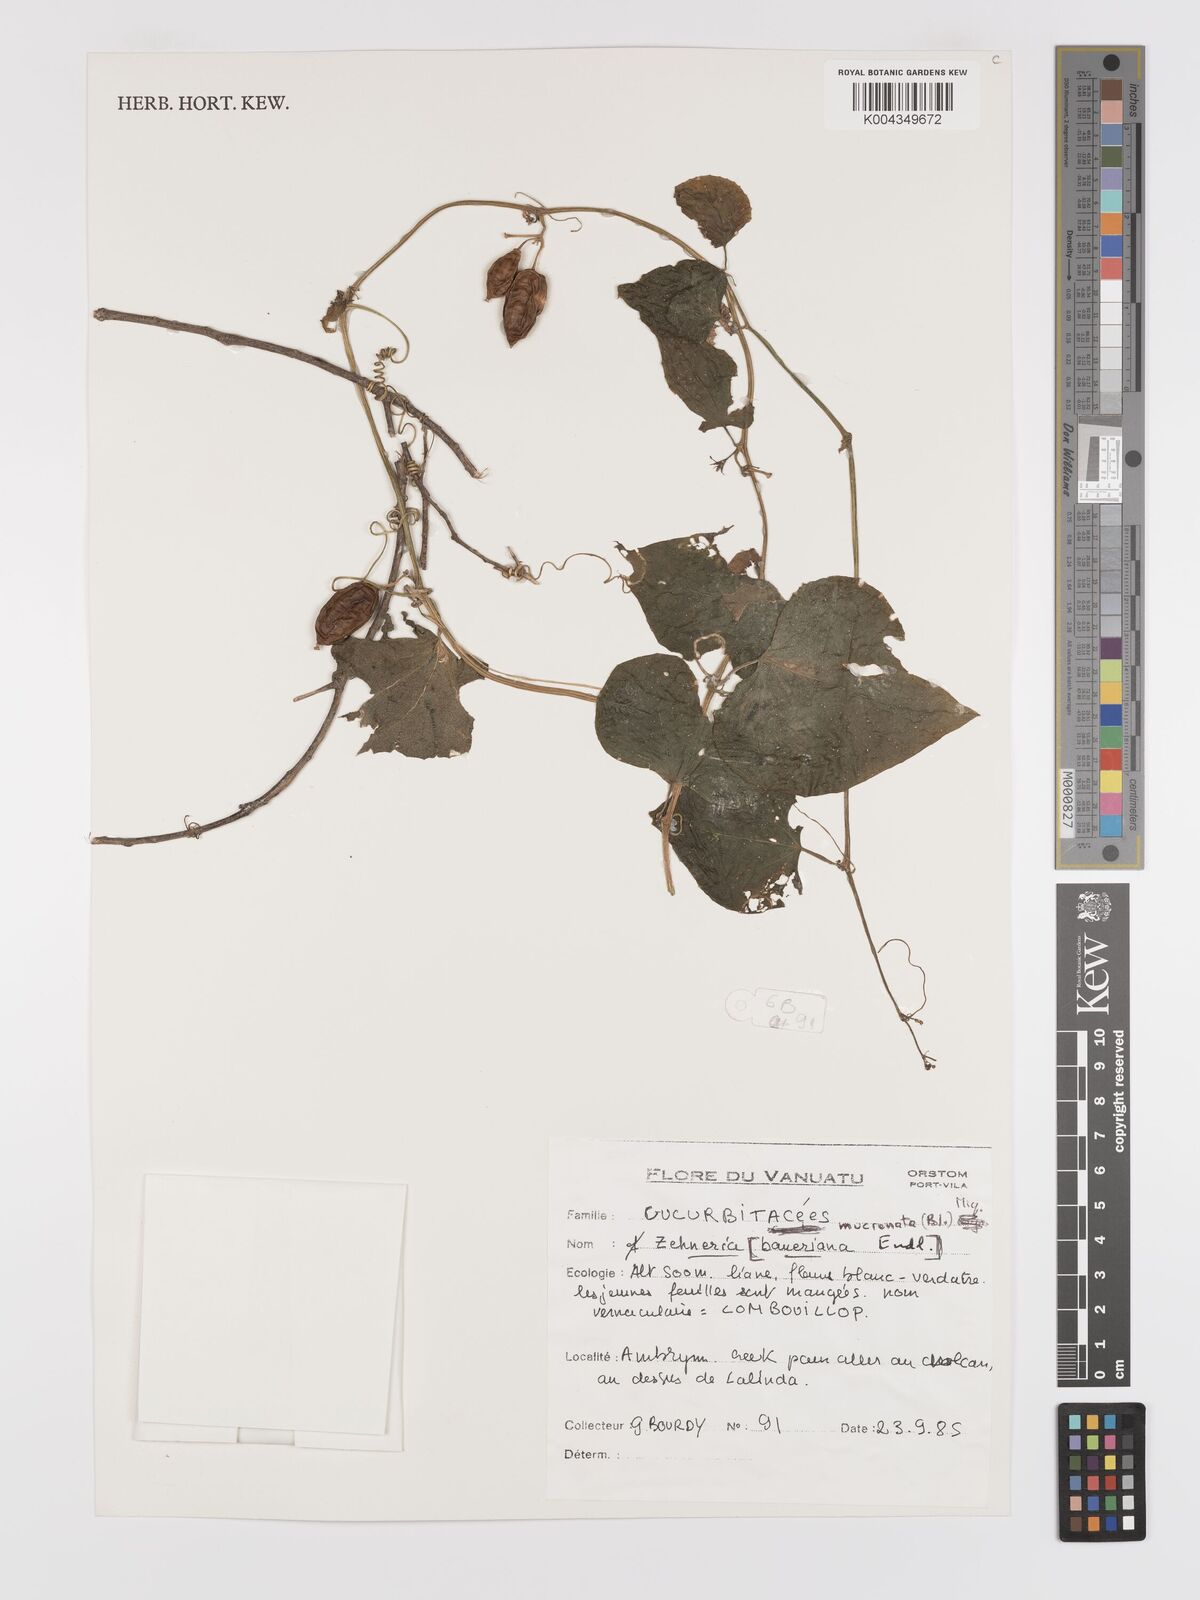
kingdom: Plantae
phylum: Tracheophyta
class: Magnoliopsida
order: Cucurbitales
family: Cucurbitaceae
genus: Zehneria
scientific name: Zehneria mucronata
